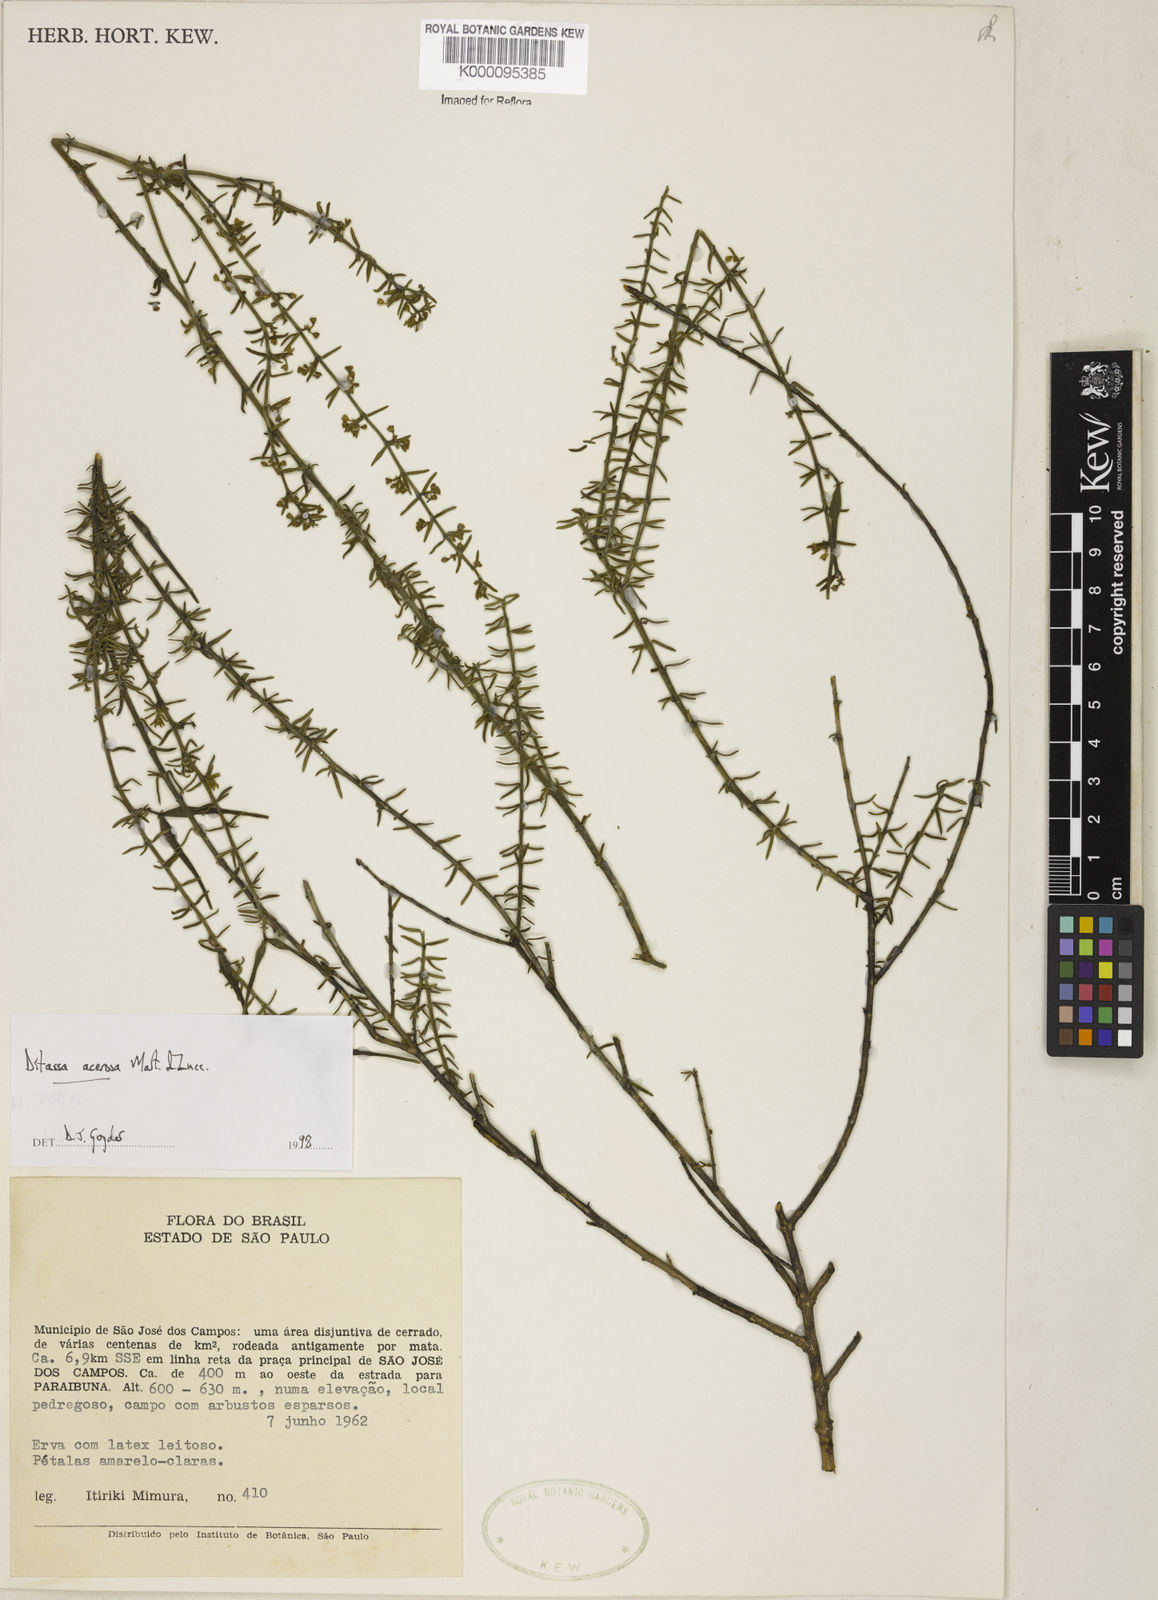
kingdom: Plantae
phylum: Tracheophyta
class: Magnoliopsida
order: Gentianales
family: Apocynaceae
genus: Minaria
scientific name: Minaria acerosa
